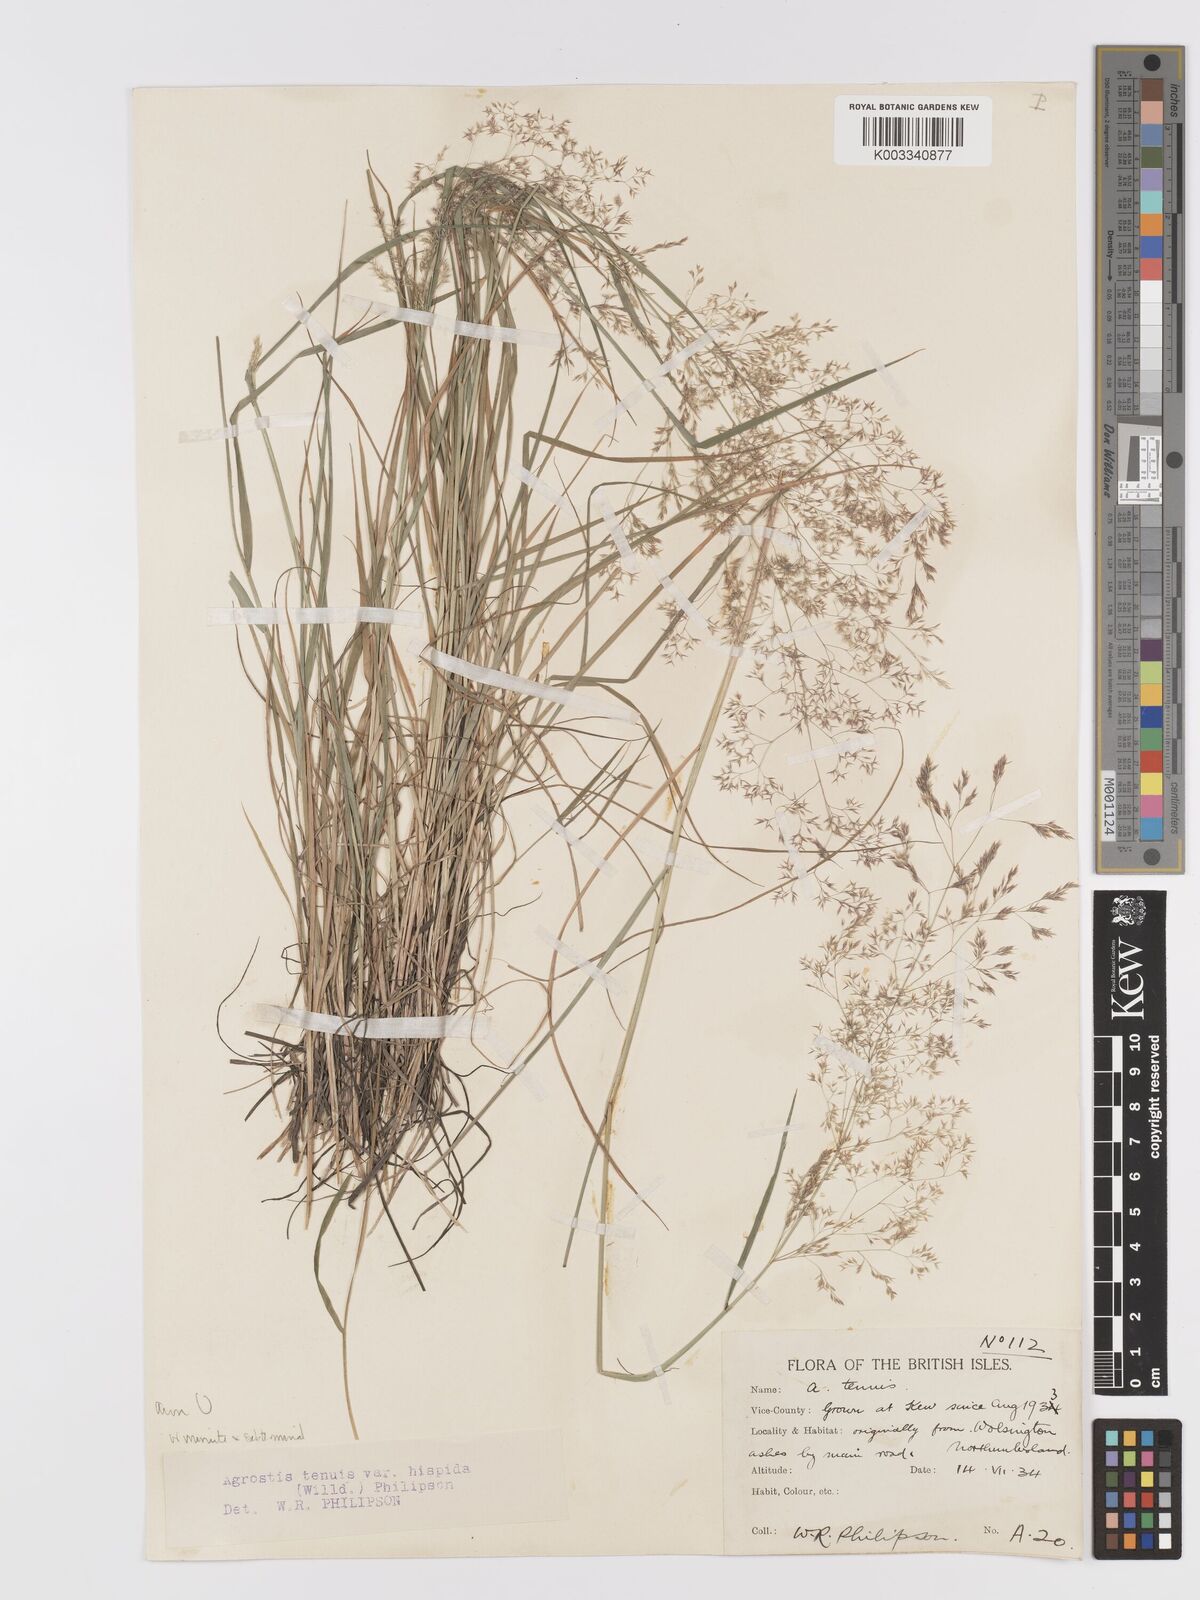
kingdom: Plantae
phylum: Tracheophyta
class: Liliopsida
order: Poales
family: Poaceae
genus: Agrostis
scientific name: Agrostis capillaris
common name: Colonial bentgrass
